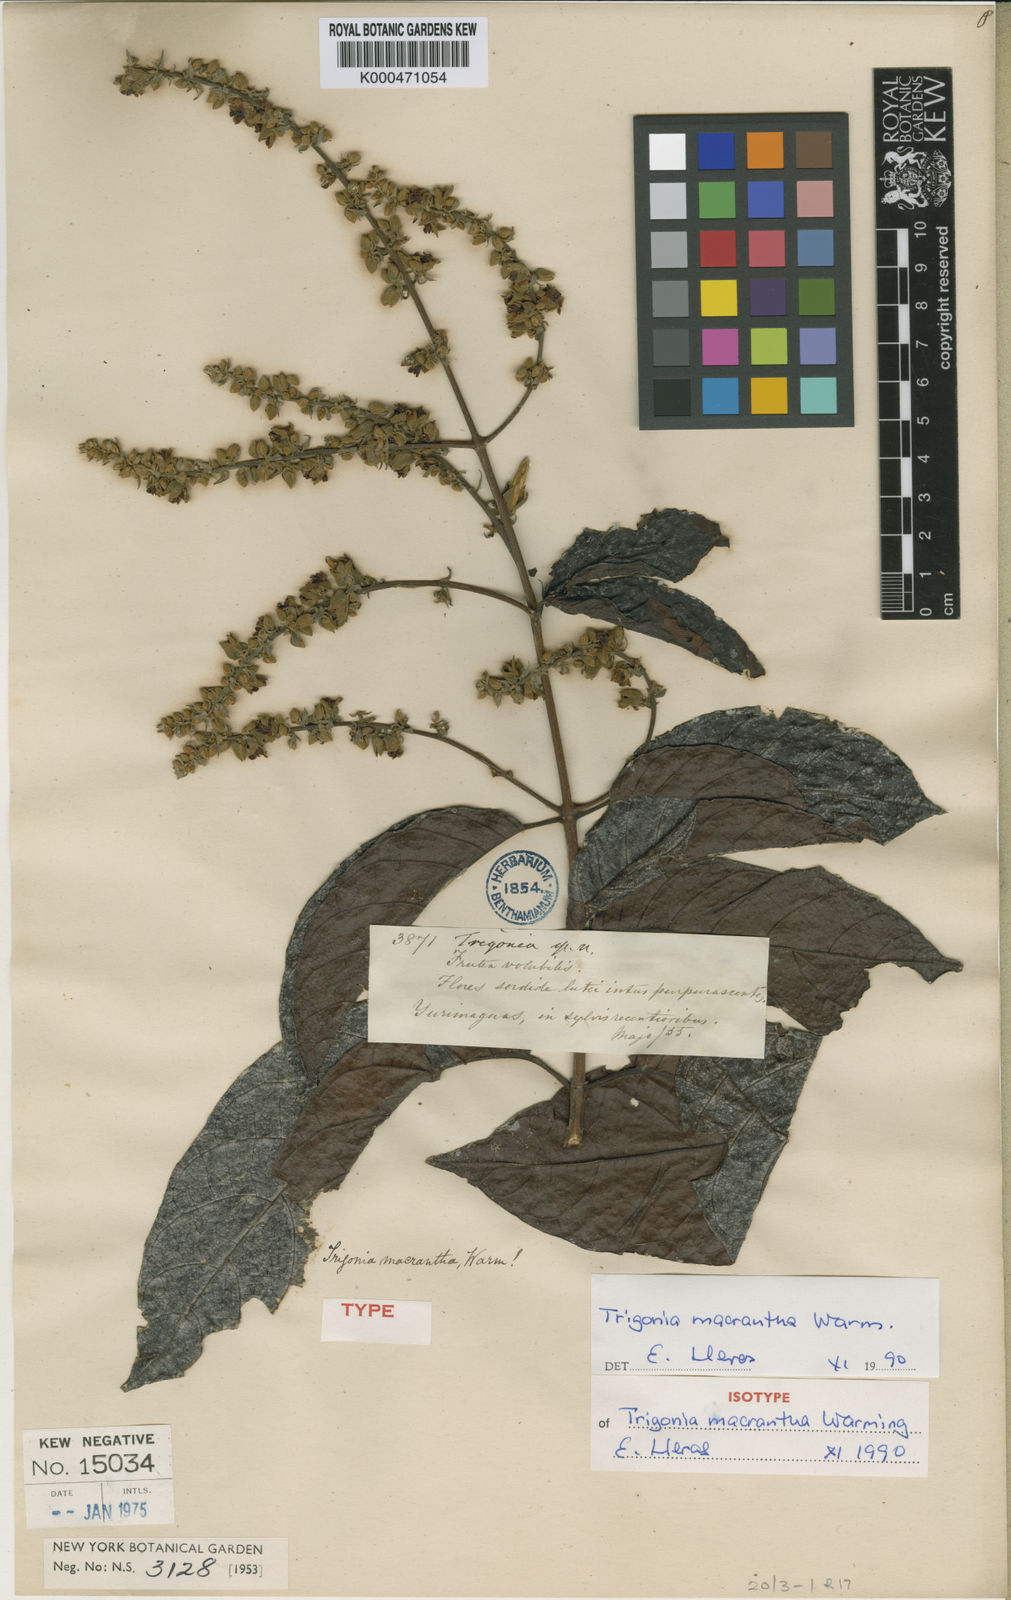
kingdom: Plantae
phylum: Tracheophyta
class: Magnoliopsida
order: Malpighiales
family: Trigoniaceae
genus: Trigonia
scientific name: Trigonia macrantha
